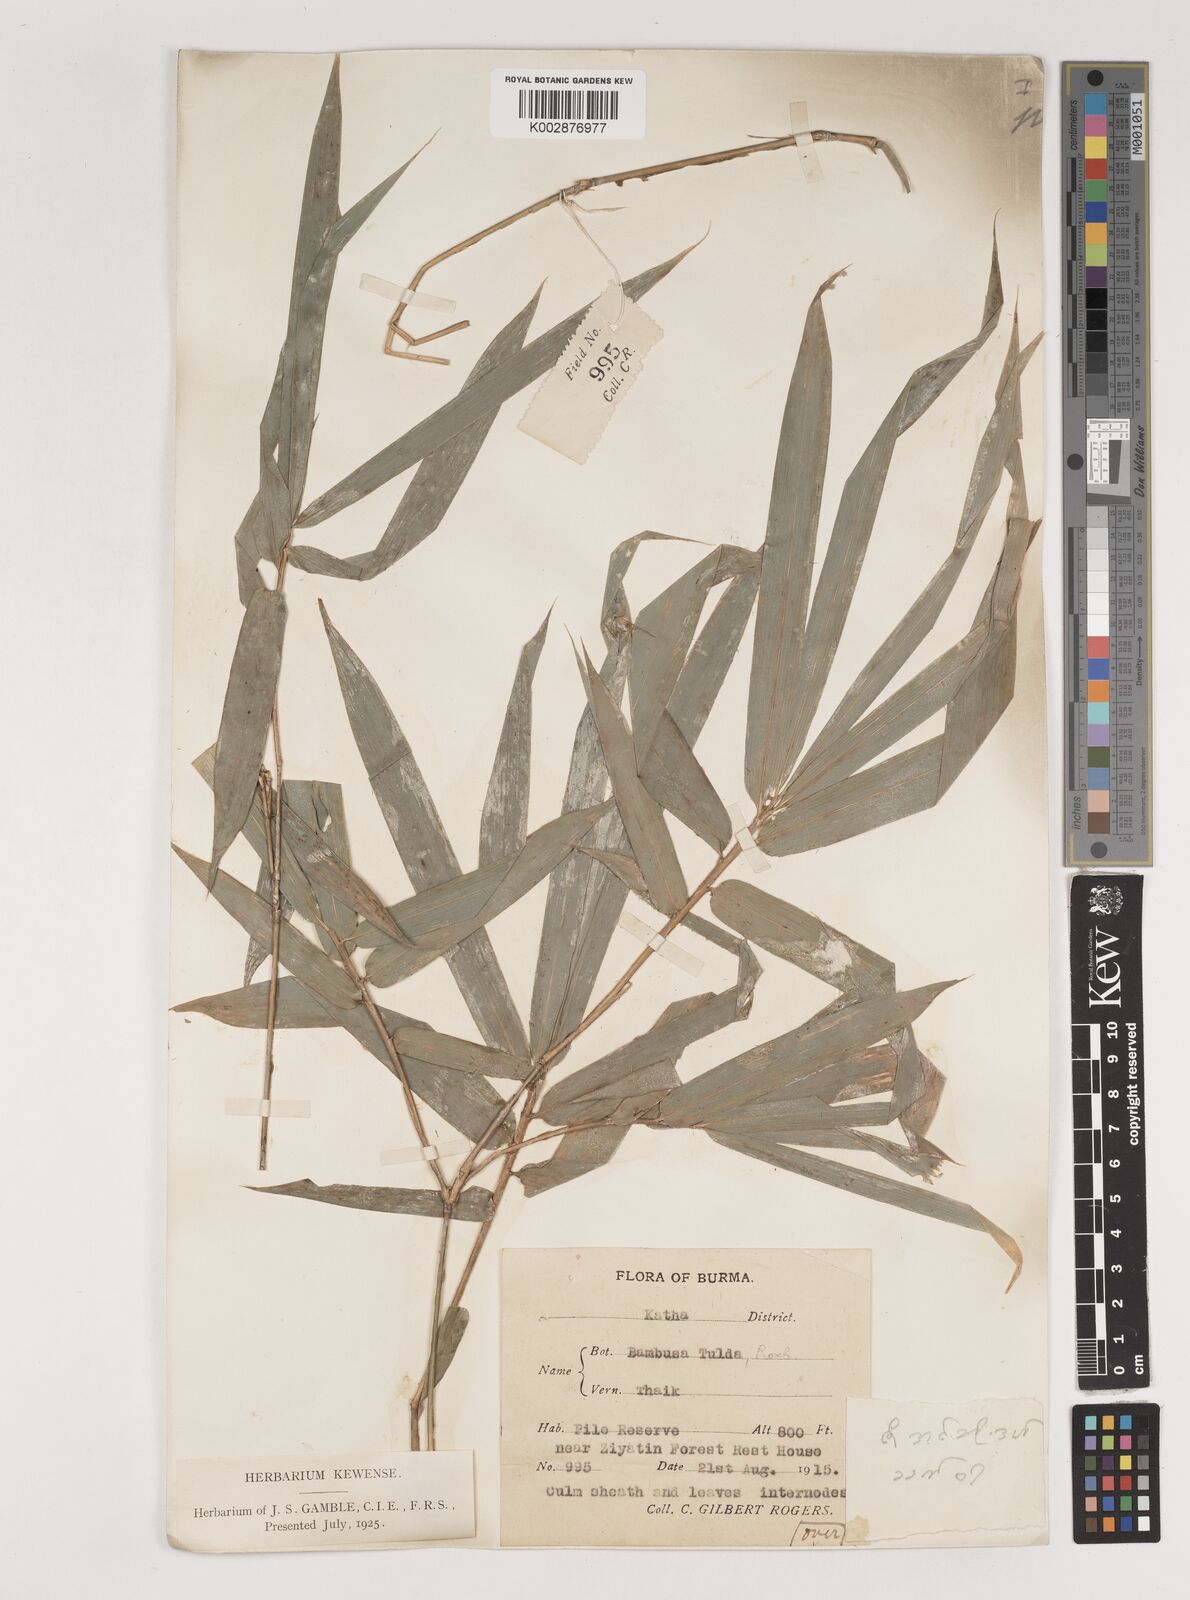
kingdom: Plantae
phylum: Tracheophyta
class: Liliopsida
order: Poales
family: Poaceae
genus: Bambusa
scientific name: Bambusa tulda
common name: Bengal bamboo
